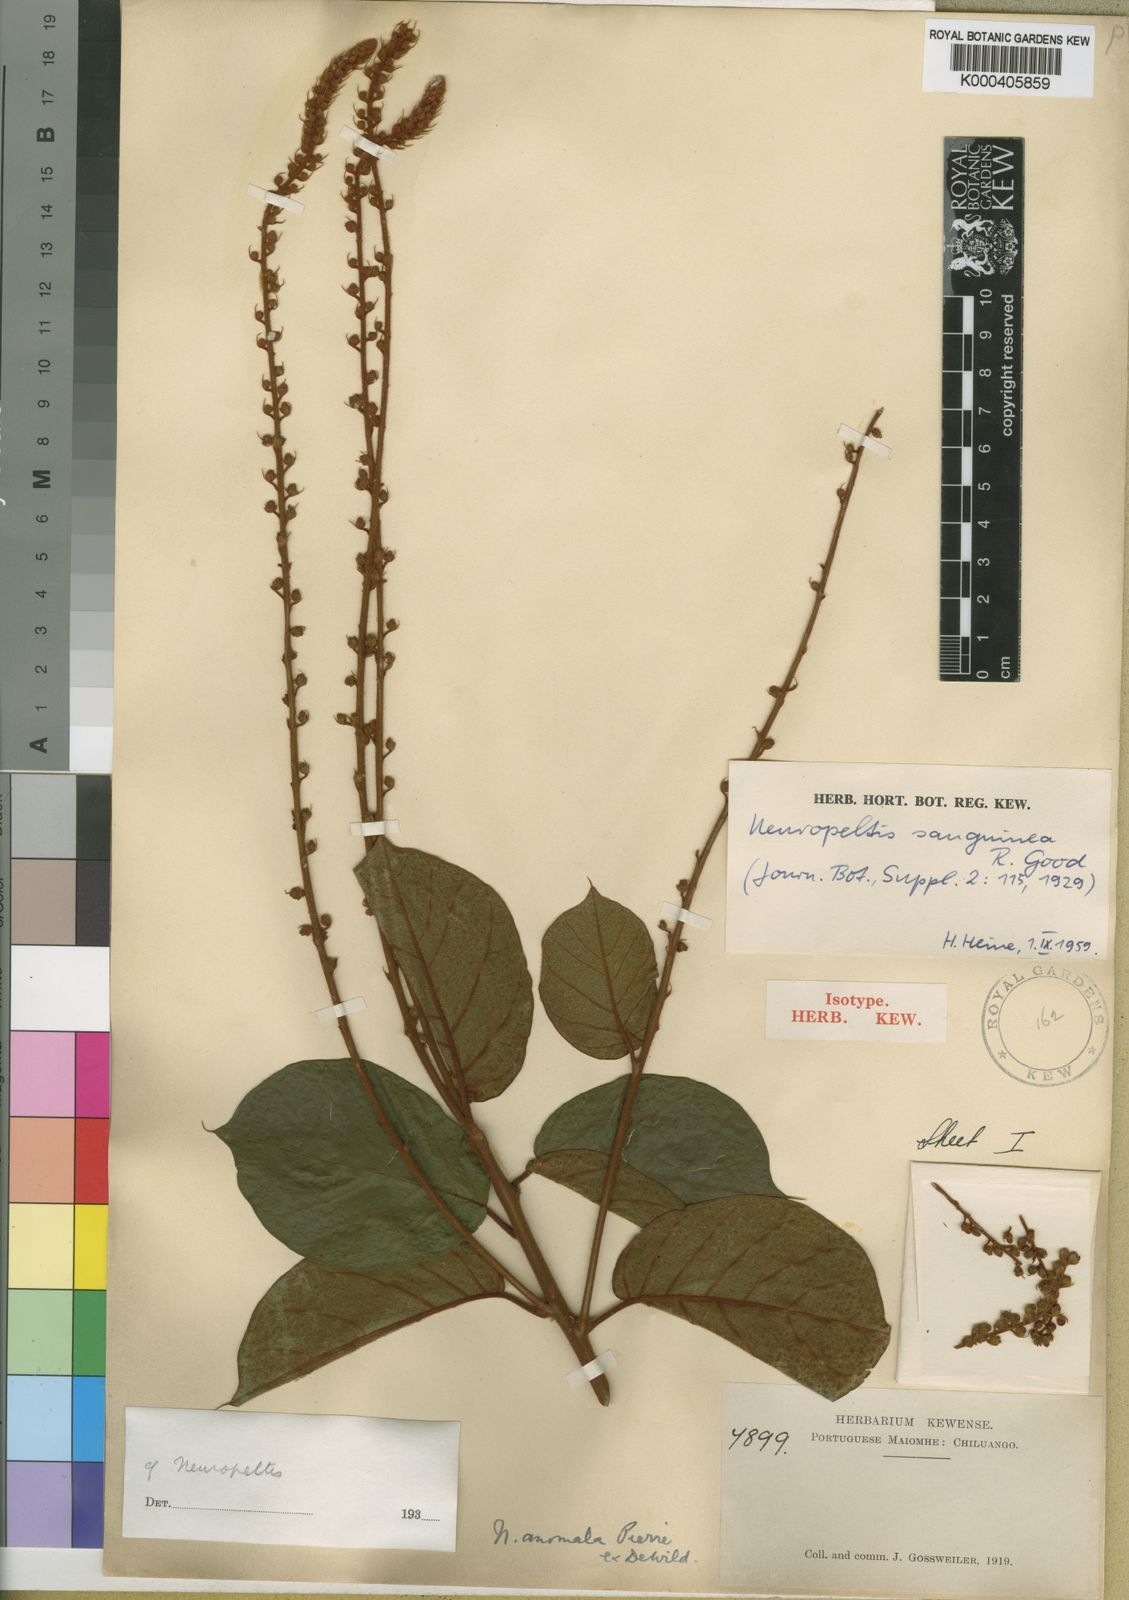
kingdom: Plantae
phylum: Tracheophyta
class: Magnoliopsida
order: Solanales
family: Convolvulaceae
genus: Neuropeltis
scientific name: Neuropeltis velutina
